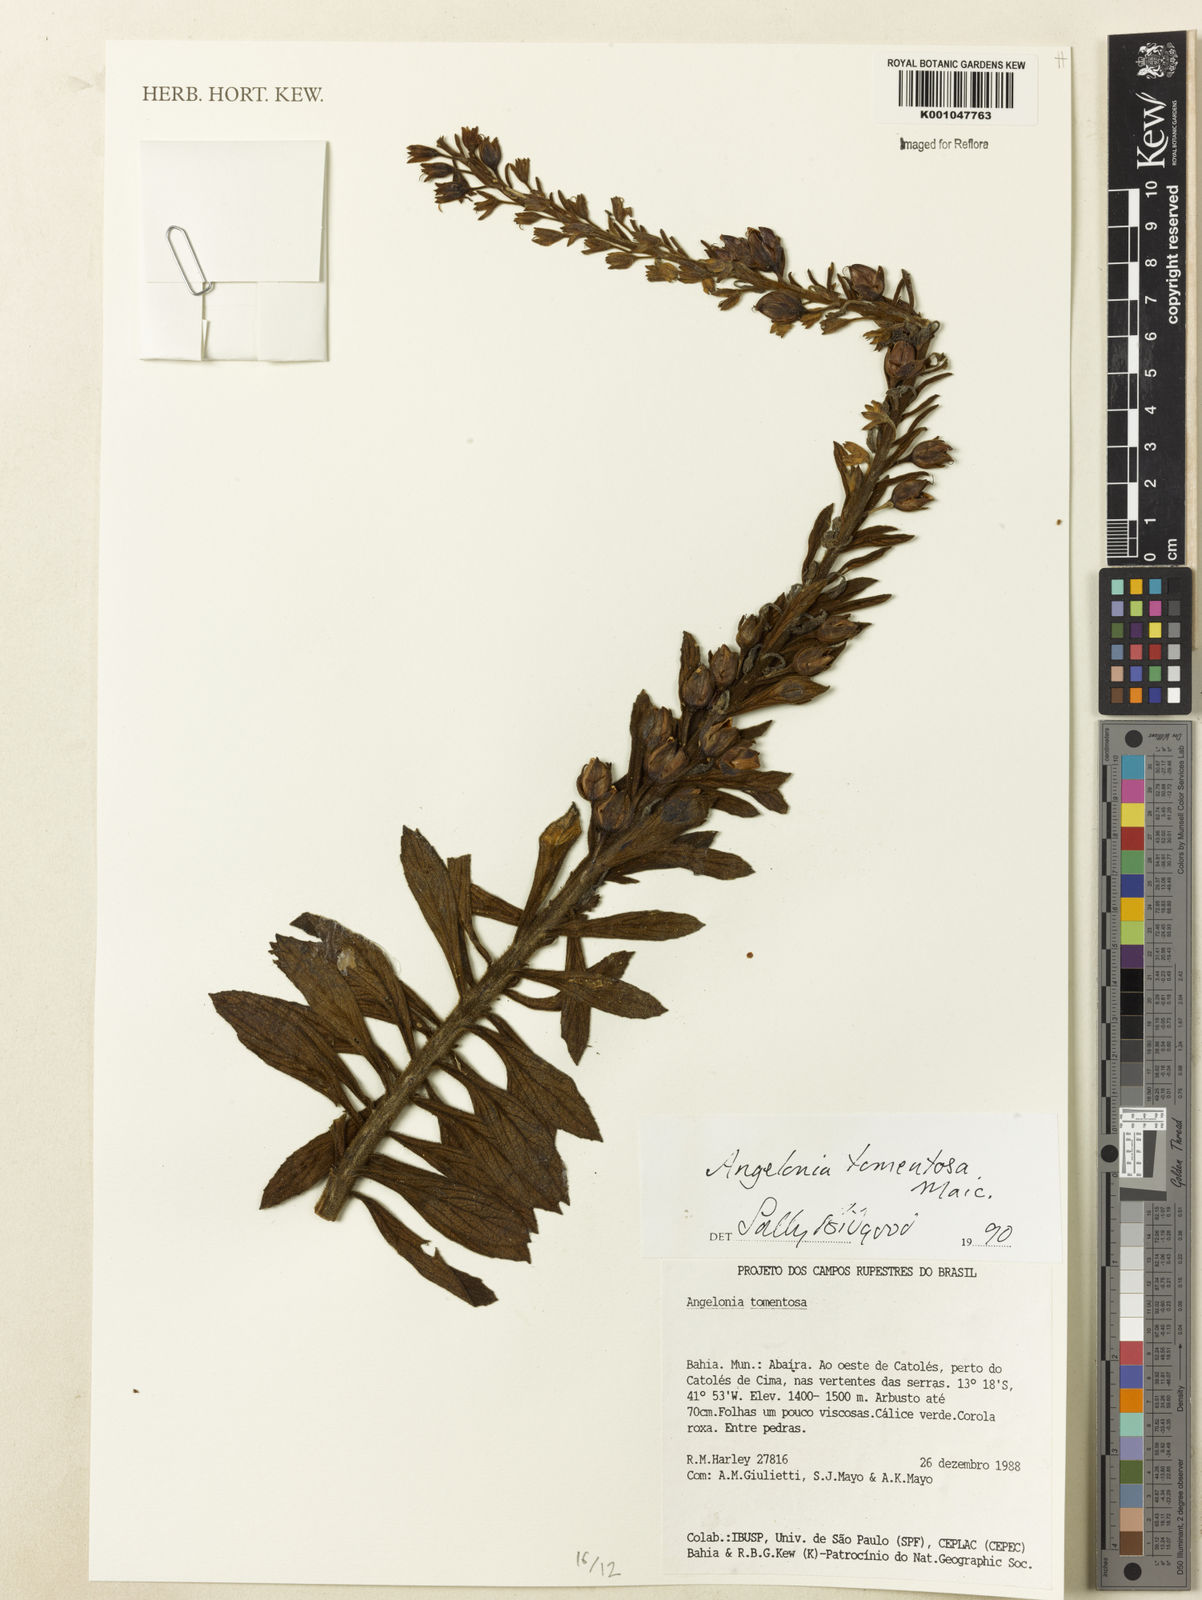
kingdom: Plantae
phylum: Tracheophyta
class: Magnoliopsida
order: Lamiales
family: Plantaginaceae
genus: Angelonia
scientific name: Angelonia tomentosa
